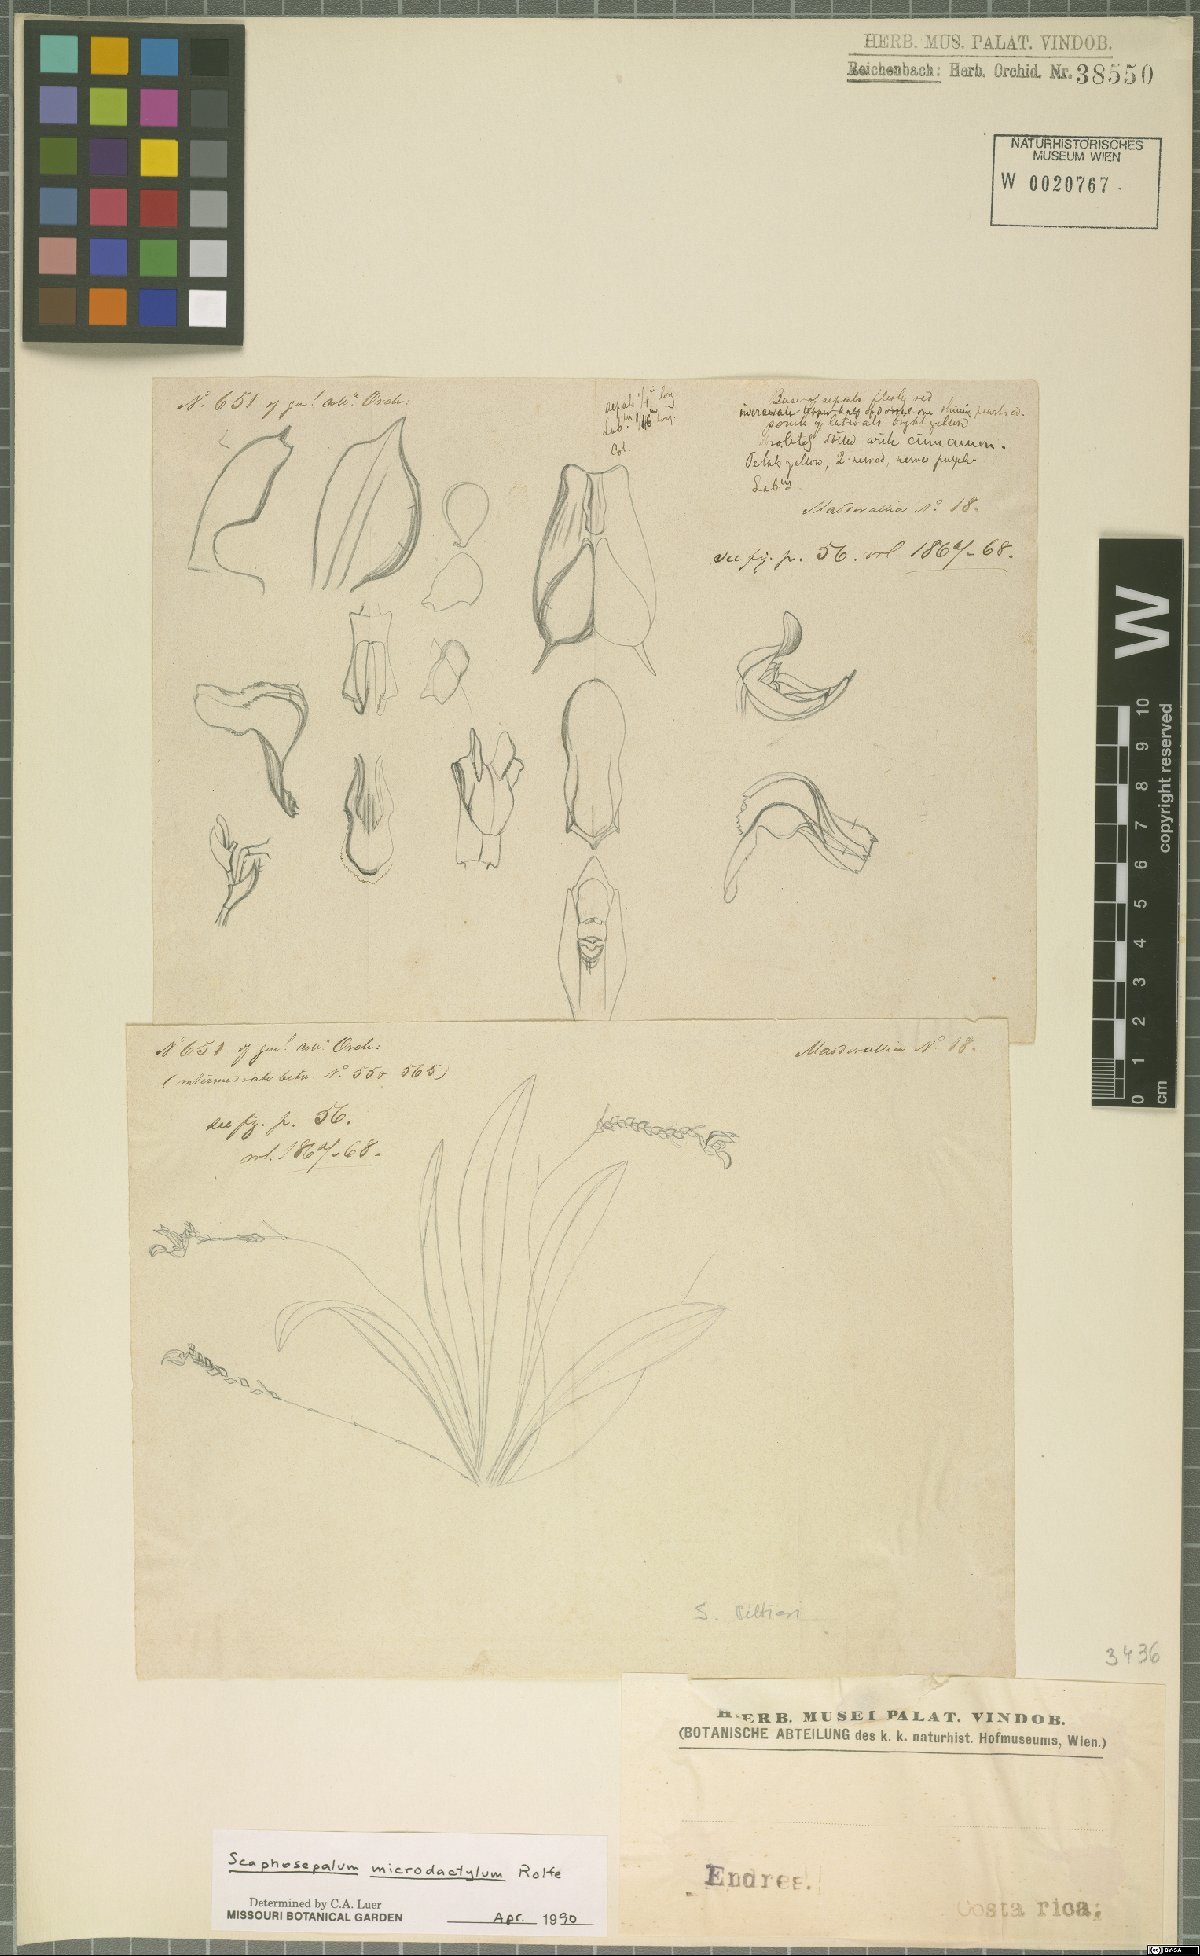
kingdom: Plantae
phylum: Tracheophyta
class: Liliopsida
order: Asparagales
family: Orchidaceae
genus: Scaphosepalum
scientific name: Scaphosepalum microdactylum
